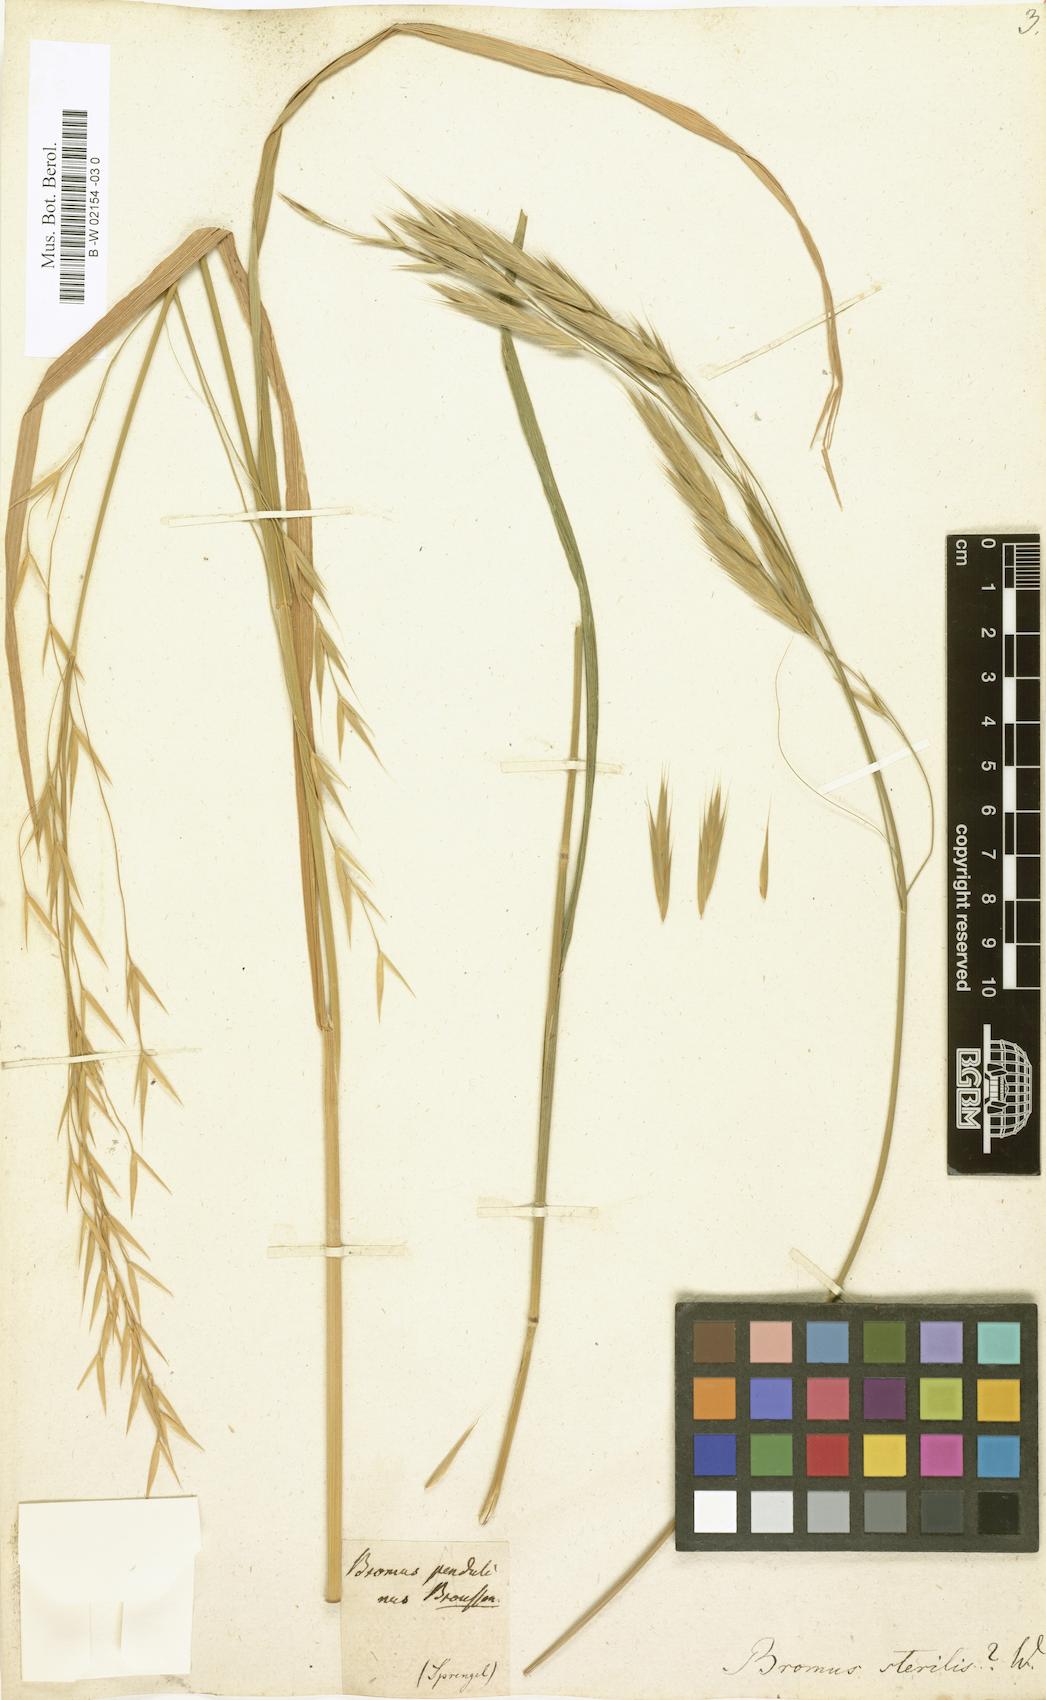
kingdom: Plantae
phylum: Tracheophyta
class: Liliopsida
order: Poales
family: Poaceae
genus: Bromus
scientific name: Bromus sterilis
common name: Poverty brome
